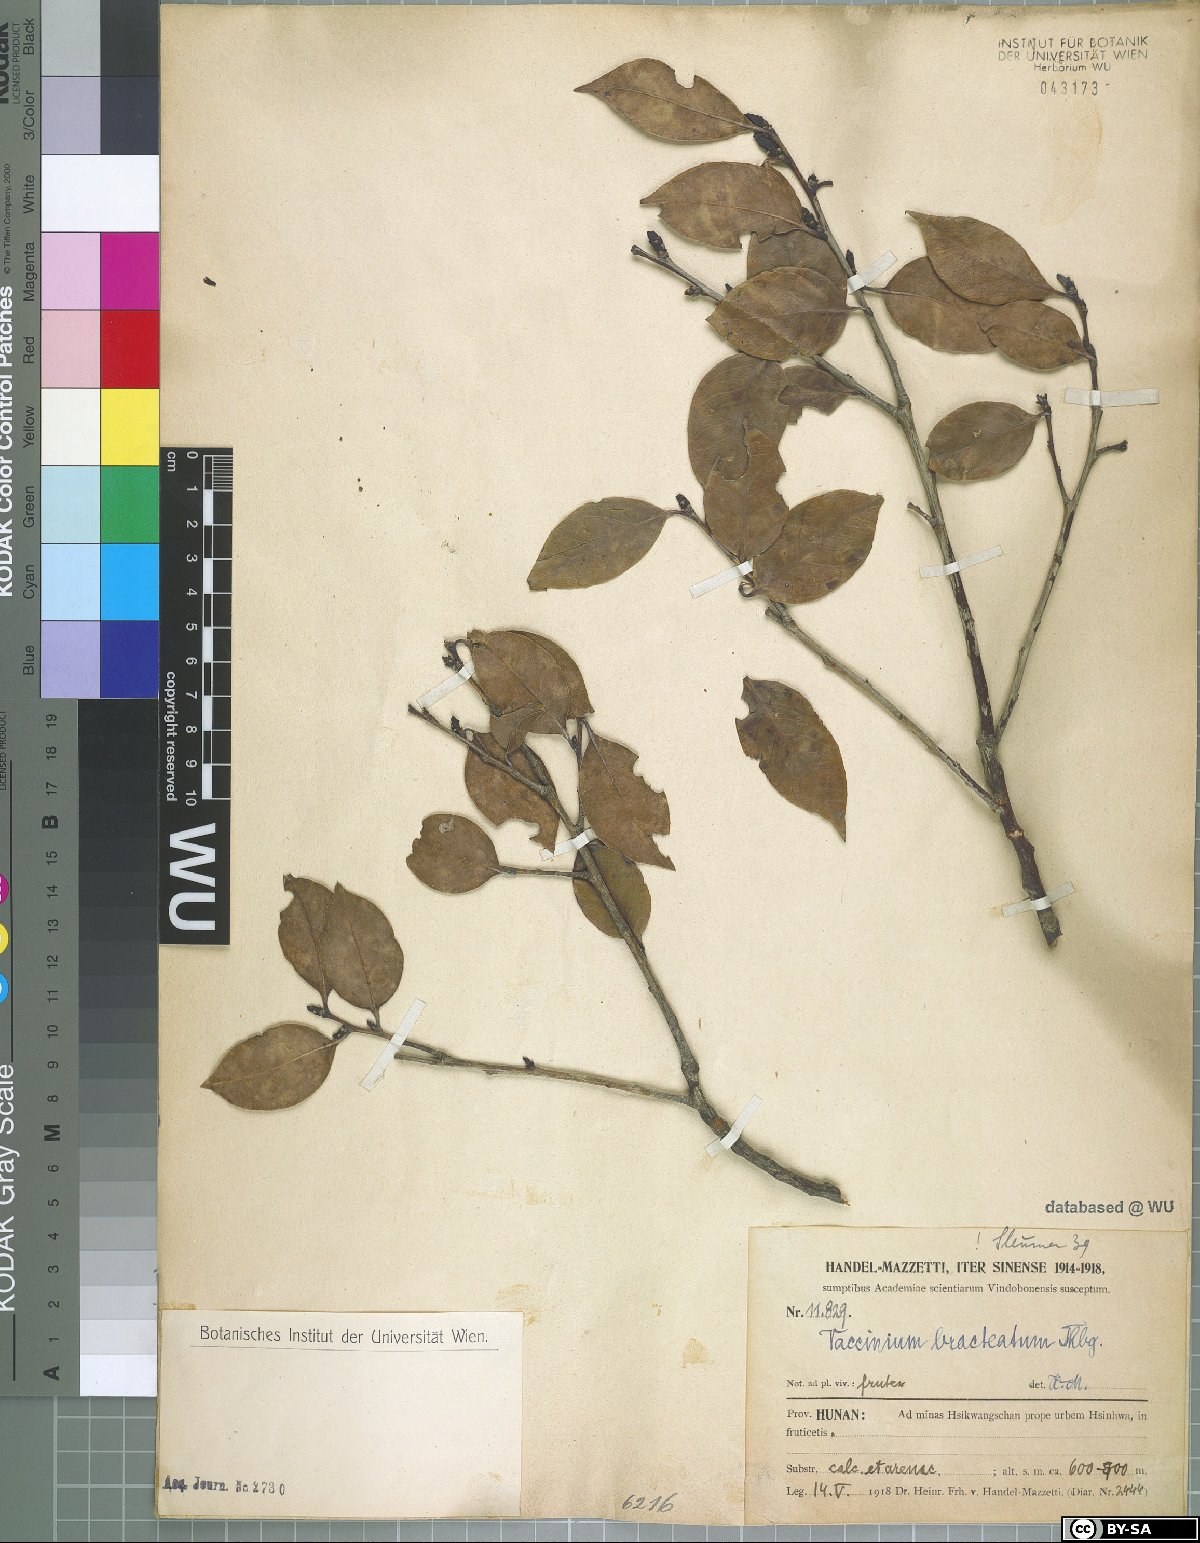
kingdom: Plantae
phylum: Tracheophyta
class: Magnoliopsida
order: Ericales
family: Ericaceae
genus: Vaccinium
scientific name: Vaccinium bracteatum
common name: Sea bilberry
